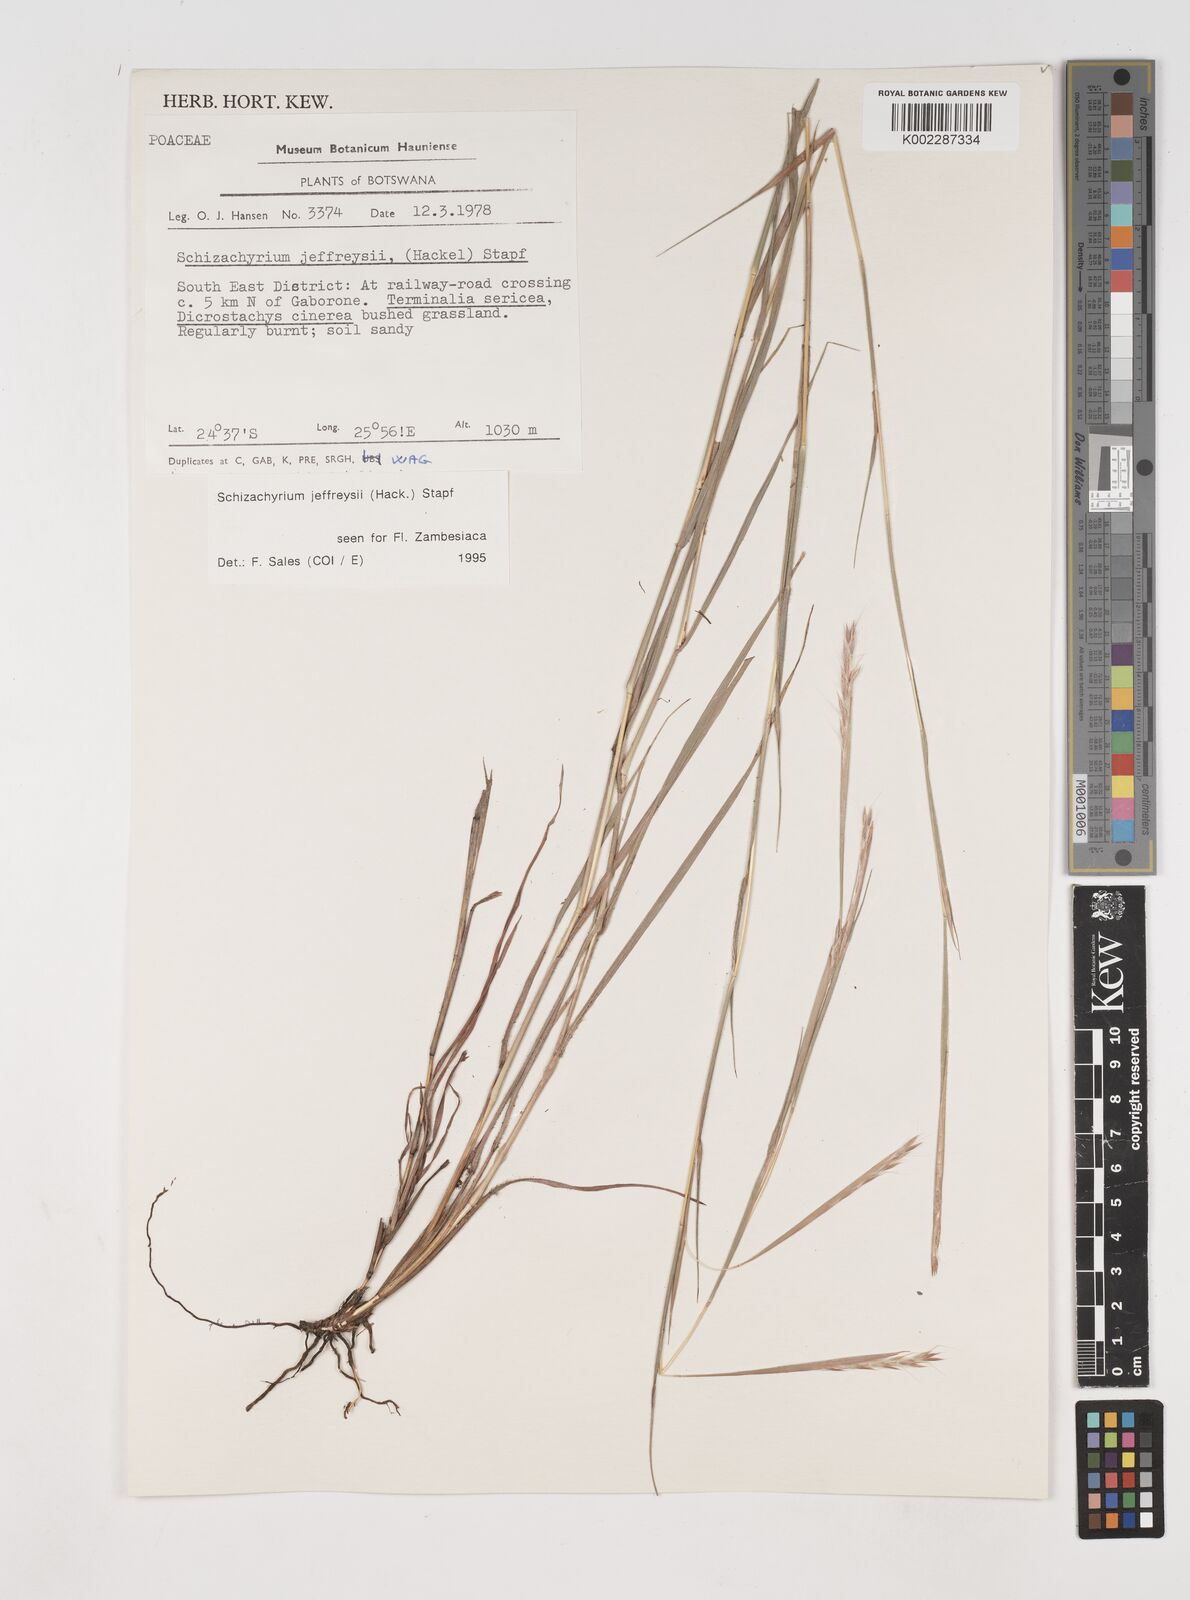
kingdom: Plantae
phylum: Tracheophyta
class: Liliopsida
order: Poales
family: Poaceae
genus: Schizachyrium
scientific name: Schizachyrium jeffreysii
